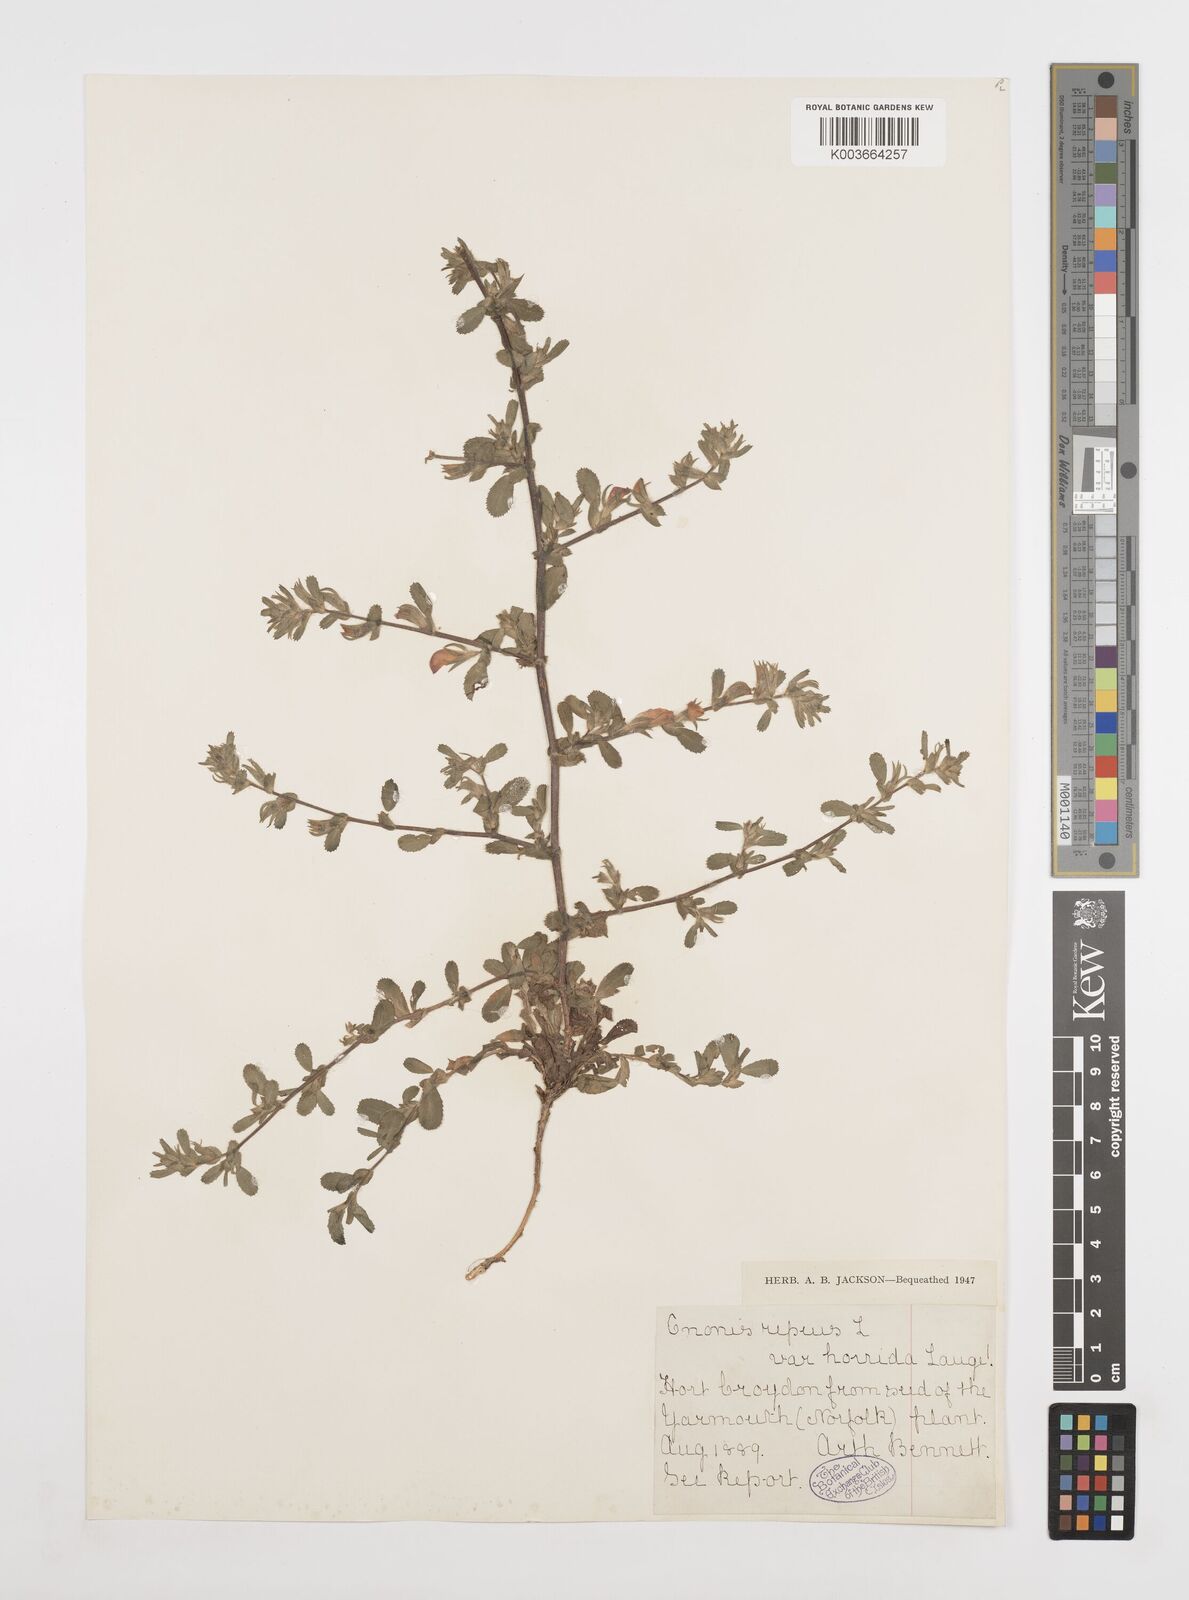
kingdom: Plantae
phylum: Tracheophyta
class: Magnoliopsida
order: Fabales
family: Fabaceae
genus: Ononis
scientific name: Ononis spinosa
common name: Spiny restharrow
